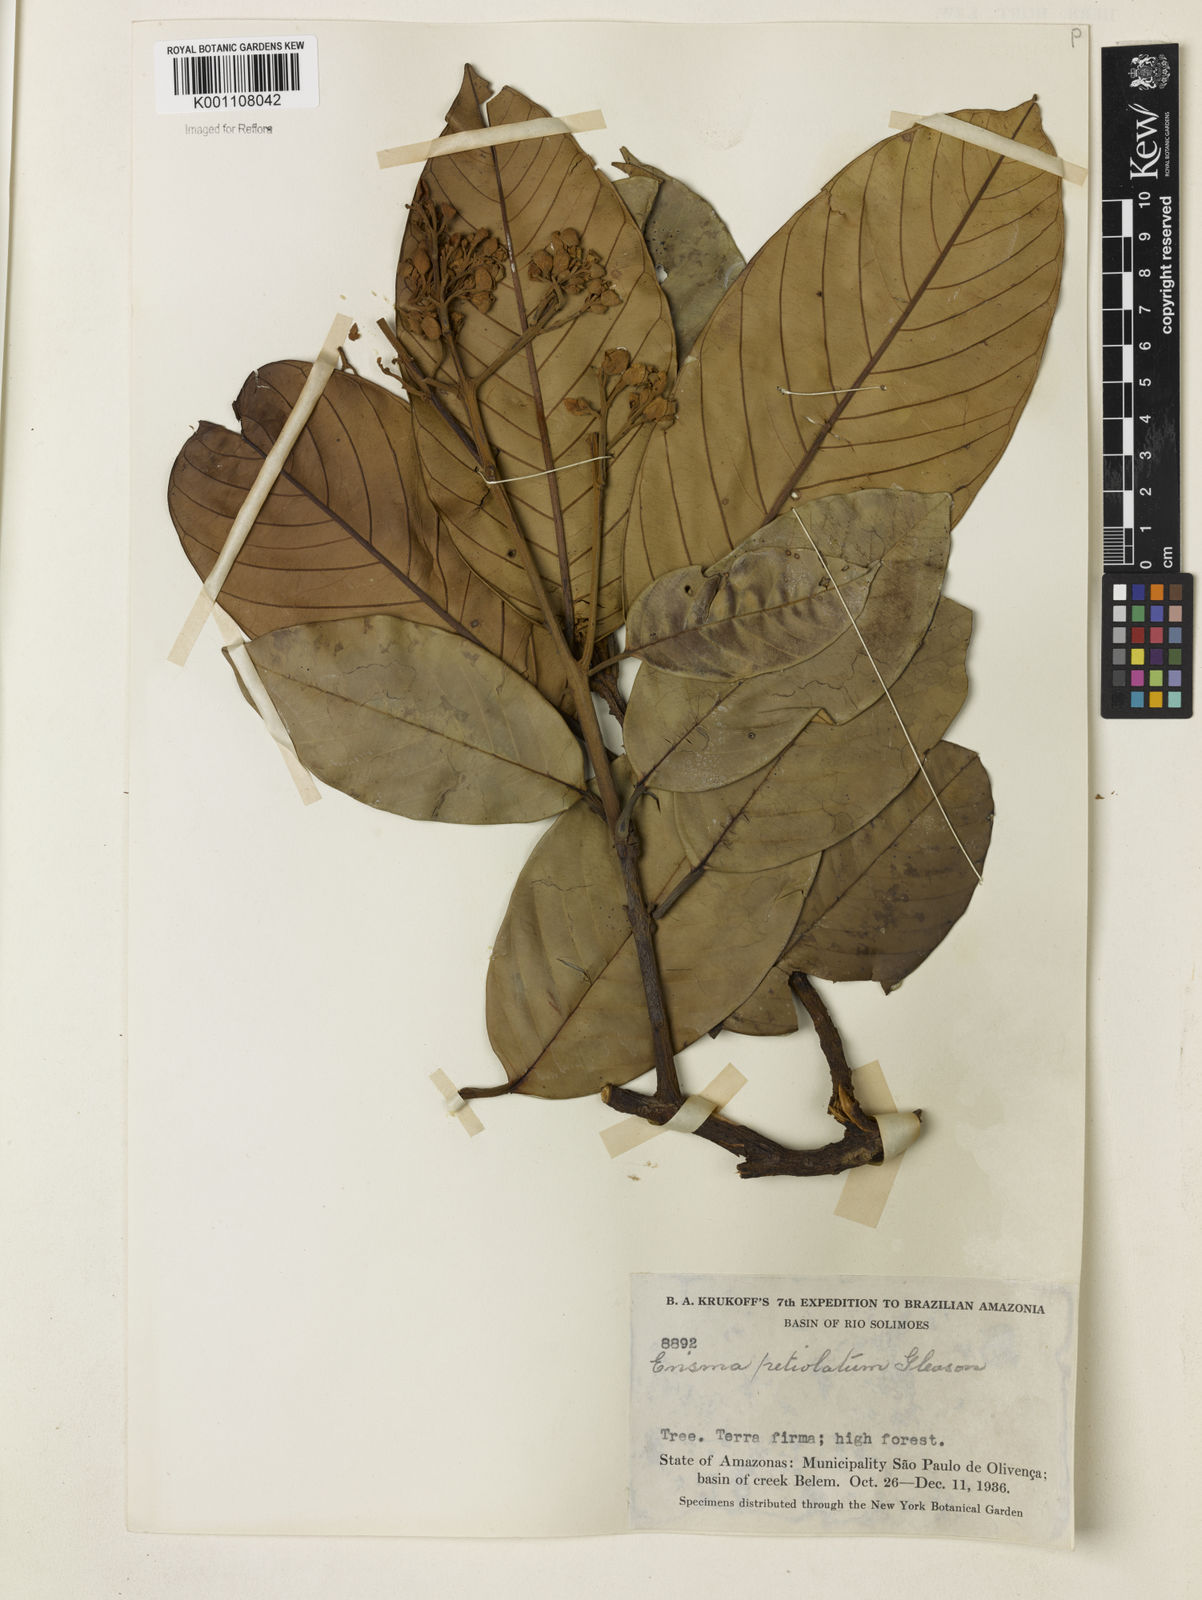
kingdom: Plantae
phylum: Tracheophyta
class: Magnoliopsida
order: Myrtales
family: Vochysiaceae
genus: Erisma
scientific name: Erisma bicolor
